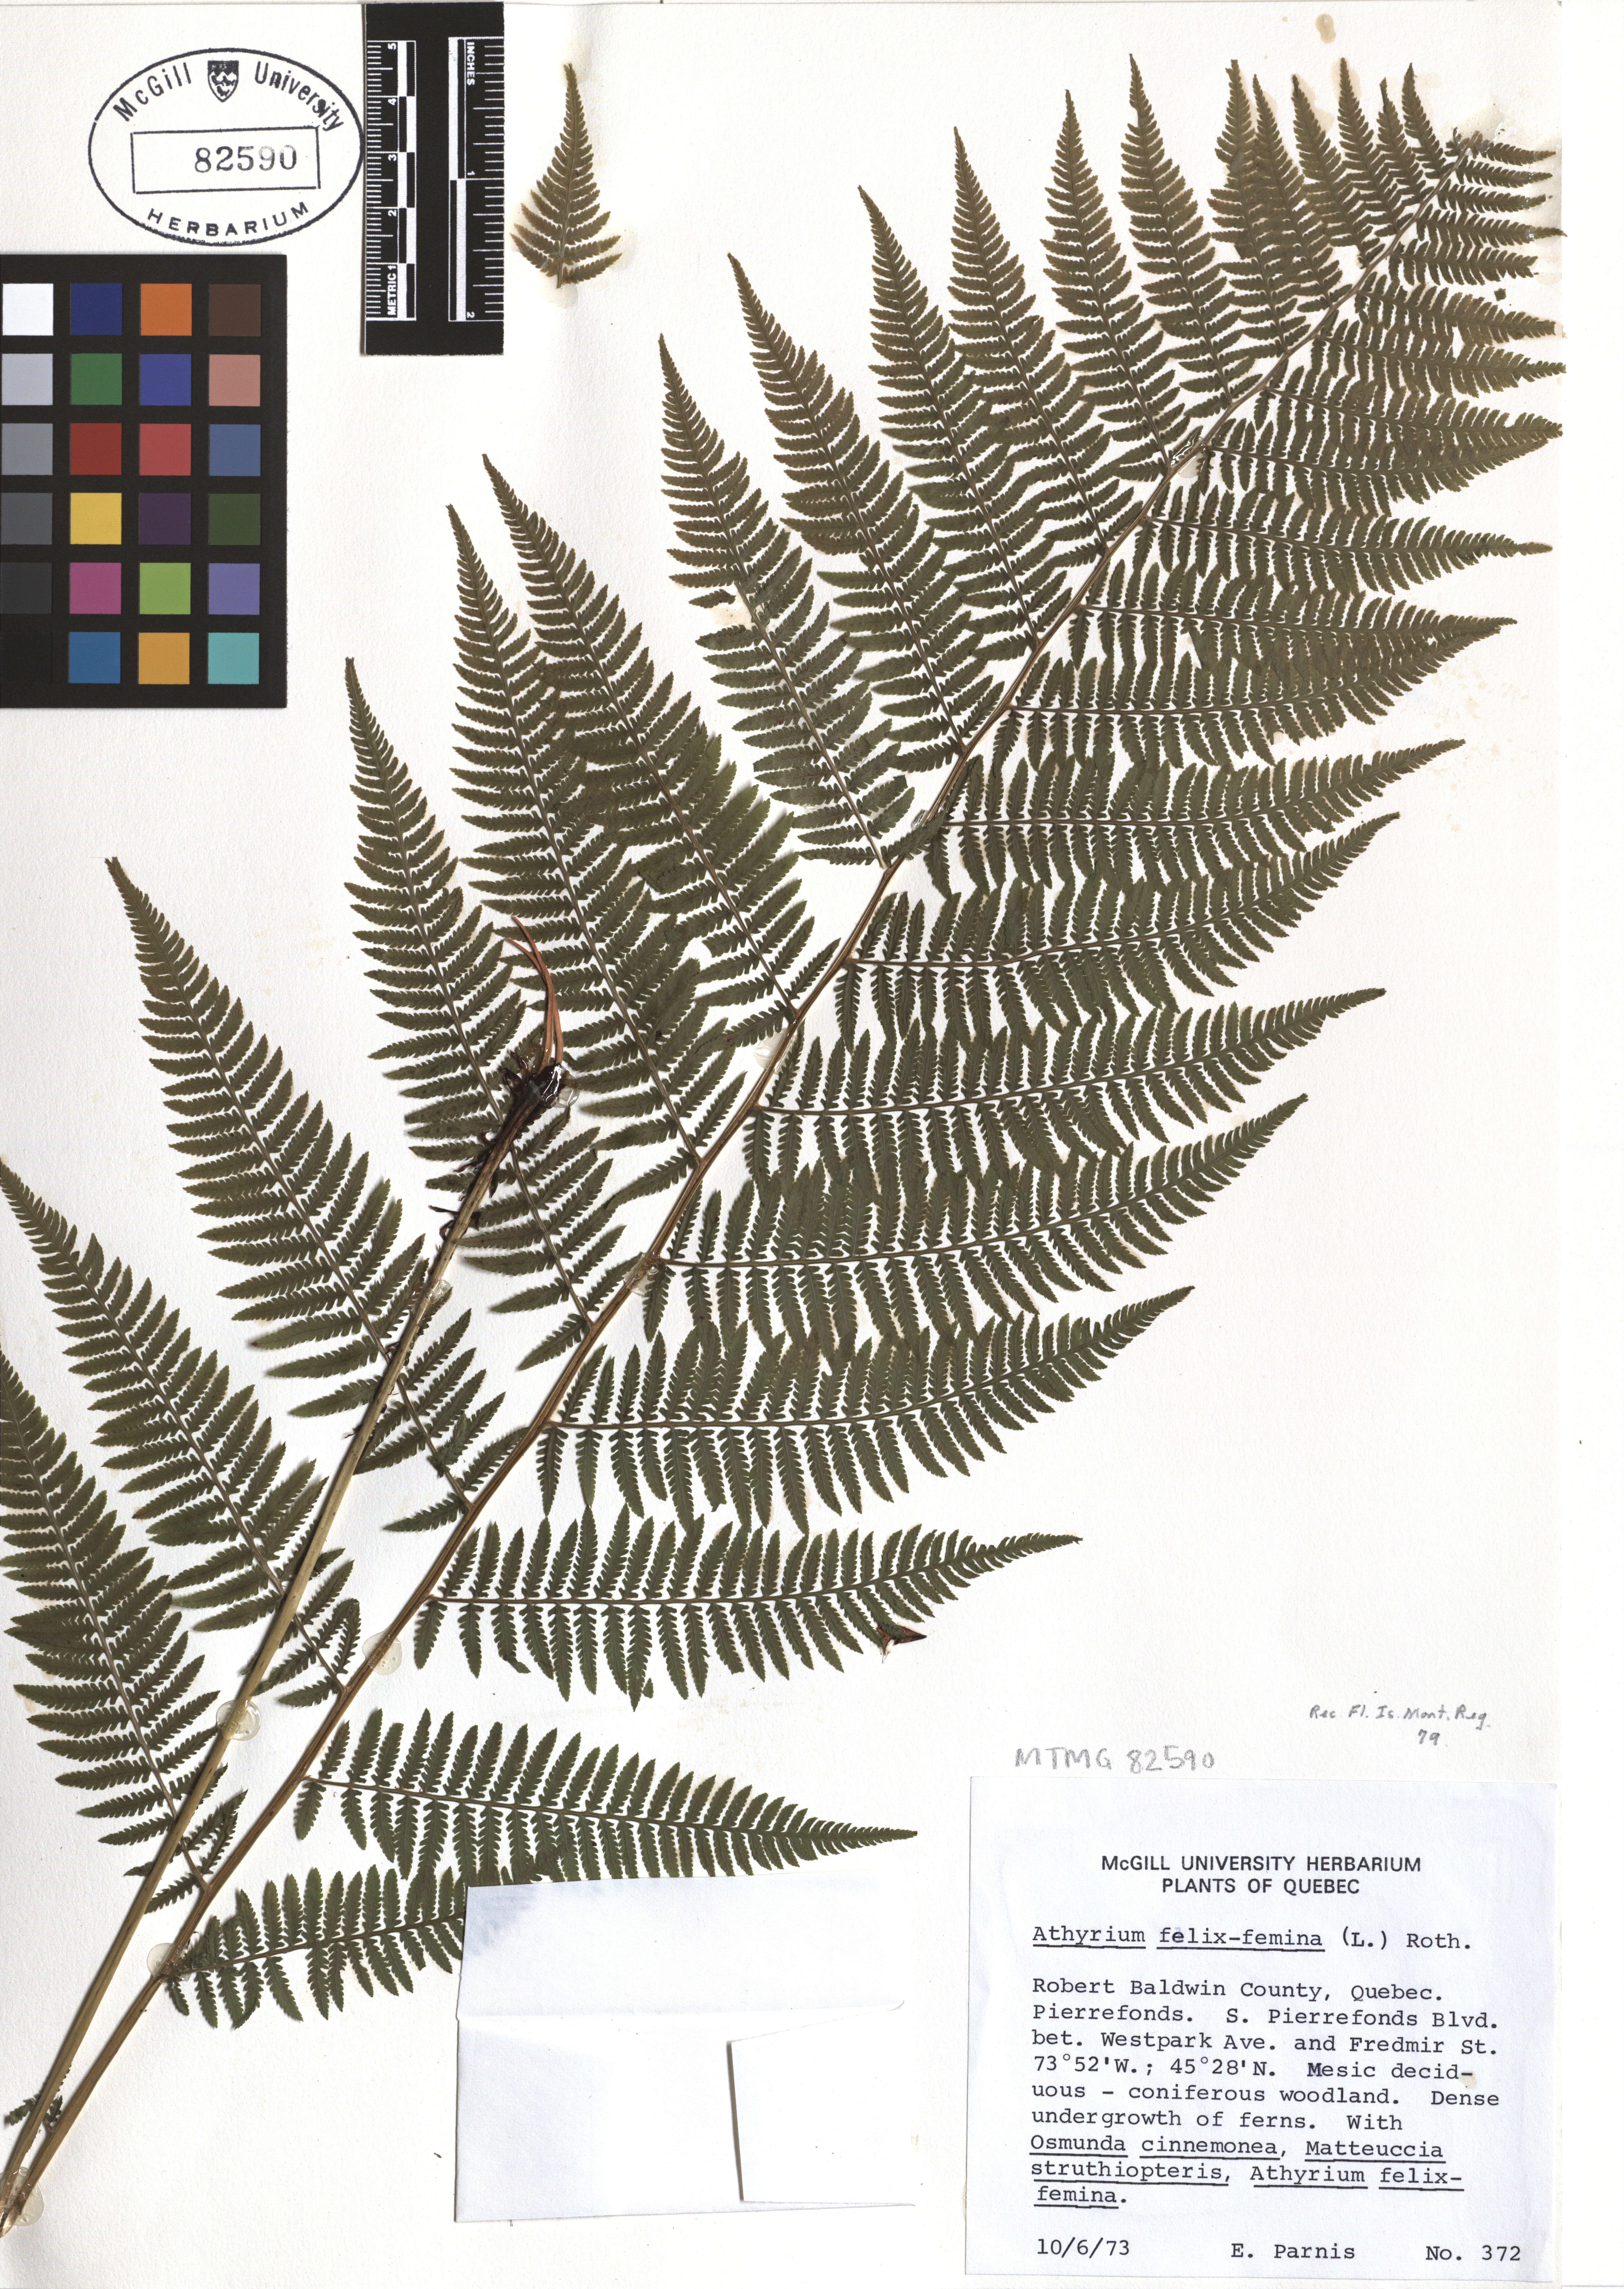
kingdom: Plantae
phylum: Tracheophyta
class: Polypodiopsida
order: Polypodiales
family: Athyriaceae
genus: Athyrium
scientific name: Athyrium filix-femina
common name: Lady fern
